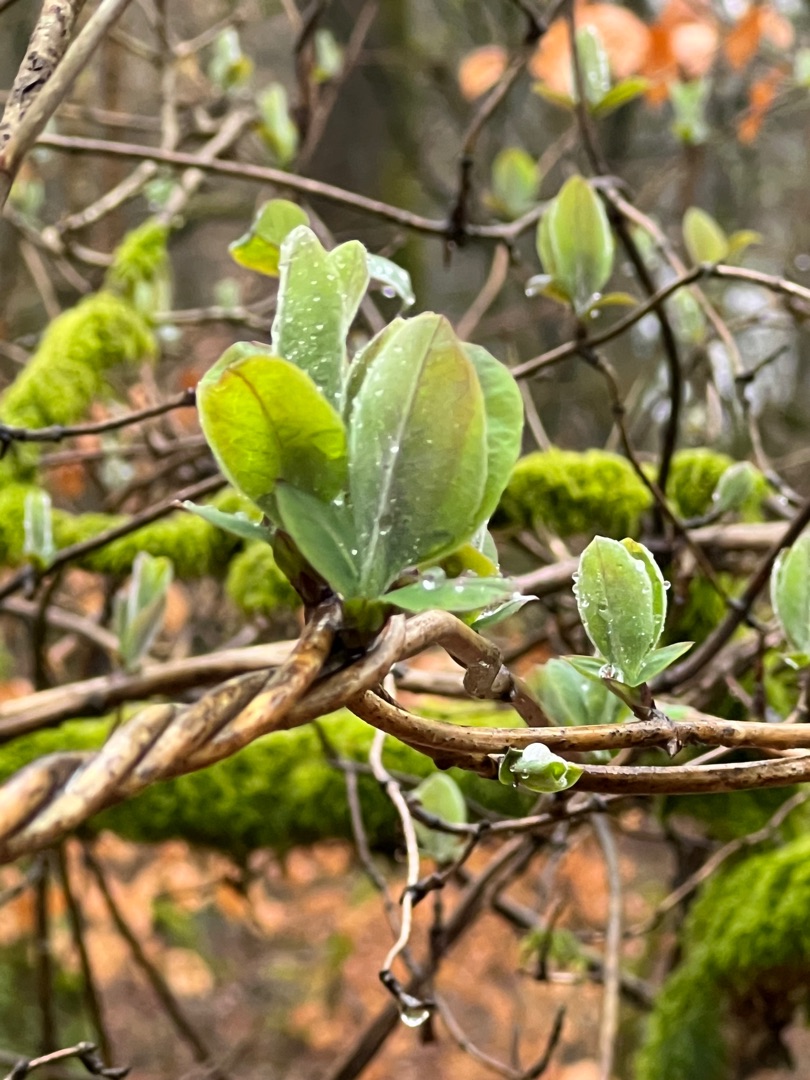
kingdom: Plantae
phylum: Tracheophyta
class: Magnoliopsida
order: Dipsacales
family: Caprifoliaceae
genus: Lonicera
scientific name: Lonicera periclymenum
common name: Almindelig gedeblad
